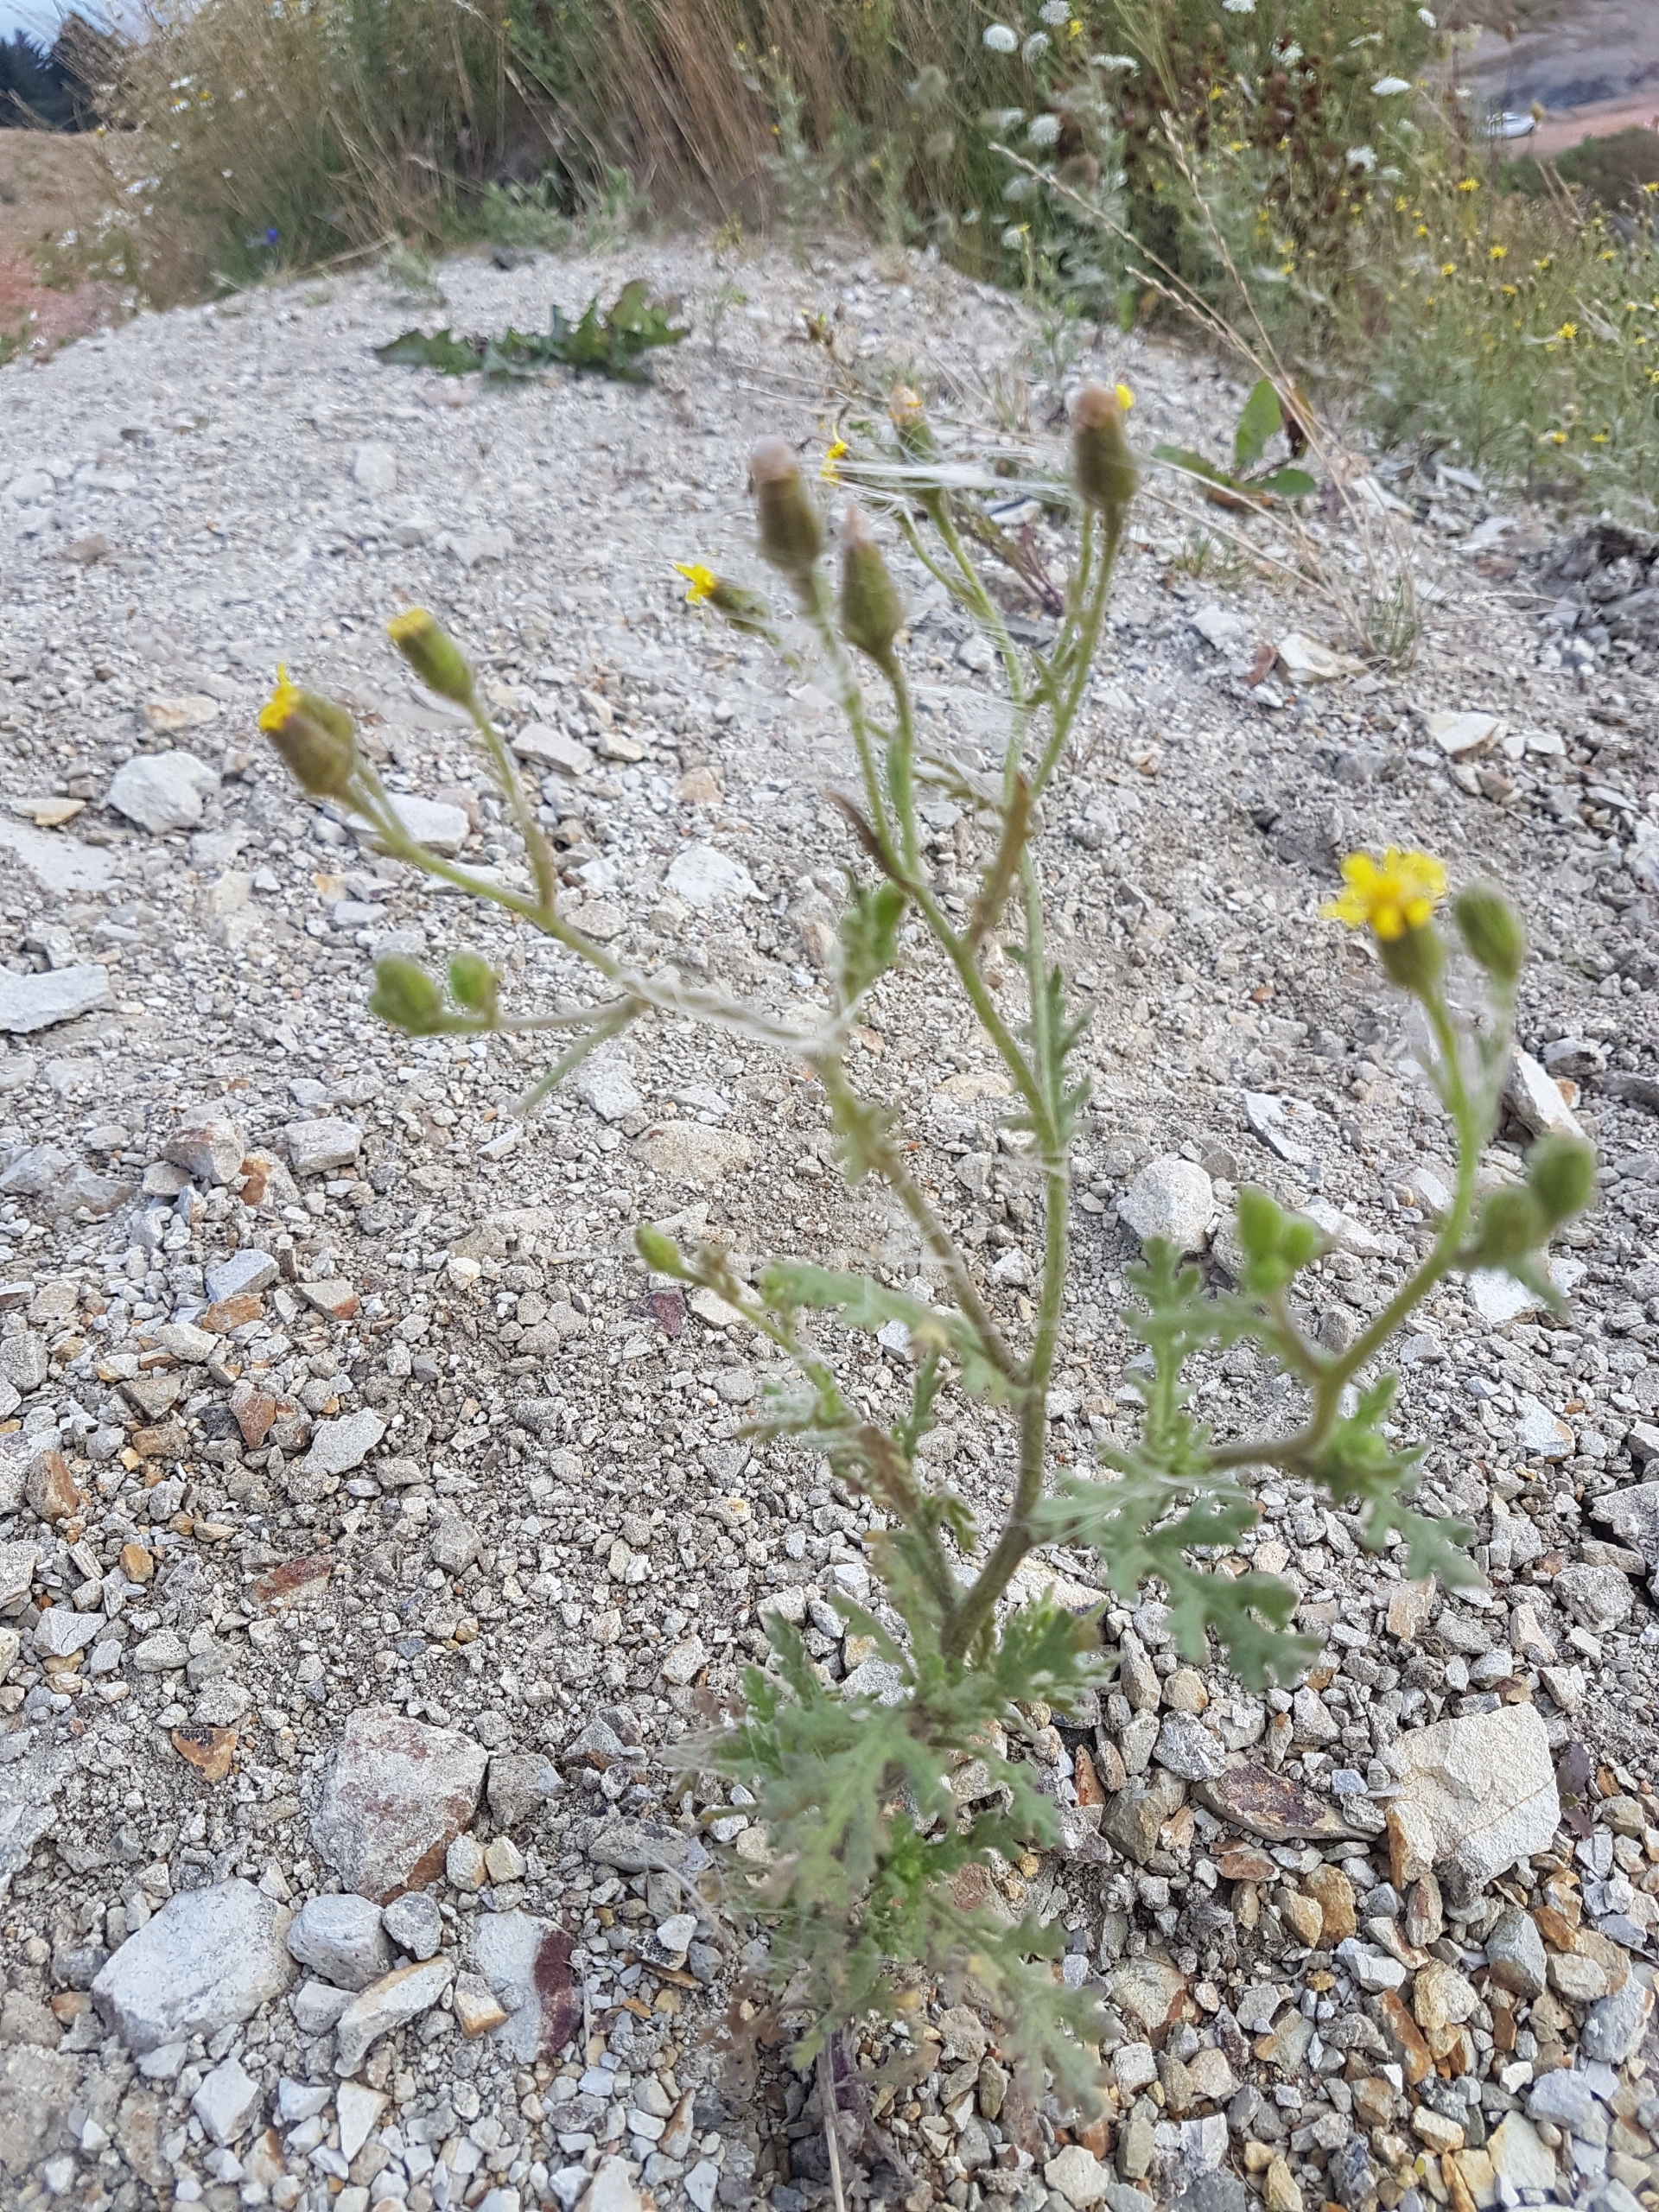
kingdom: Plantae
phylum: Tracheophyta
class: Magnoliopsida
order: Asterales
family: Asteraceae
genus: Senecio
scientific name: Senecio viscosus
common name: Klæbrig brandbæger
